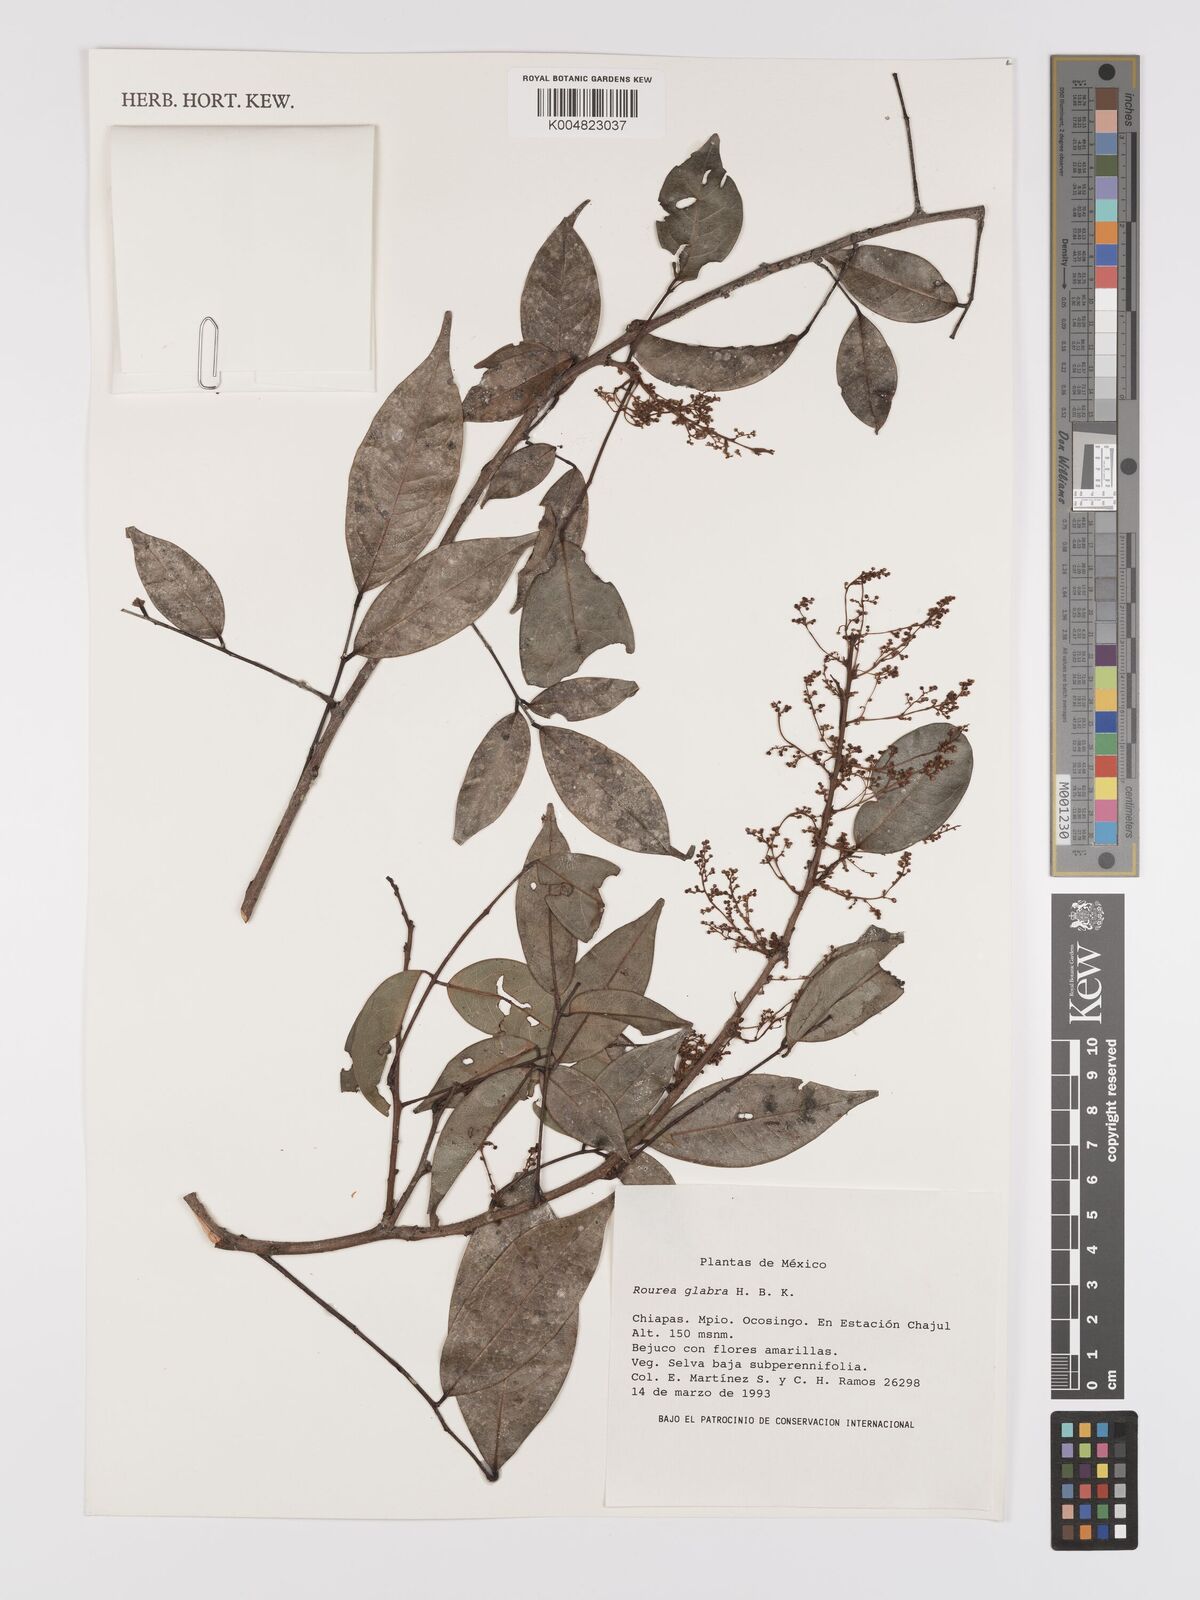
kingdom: Plantae
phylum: Tracheophyta
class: Magnoliopsida
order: Oxalidales
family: Connaraceae
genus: Rourea
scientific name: Rourea glabra
